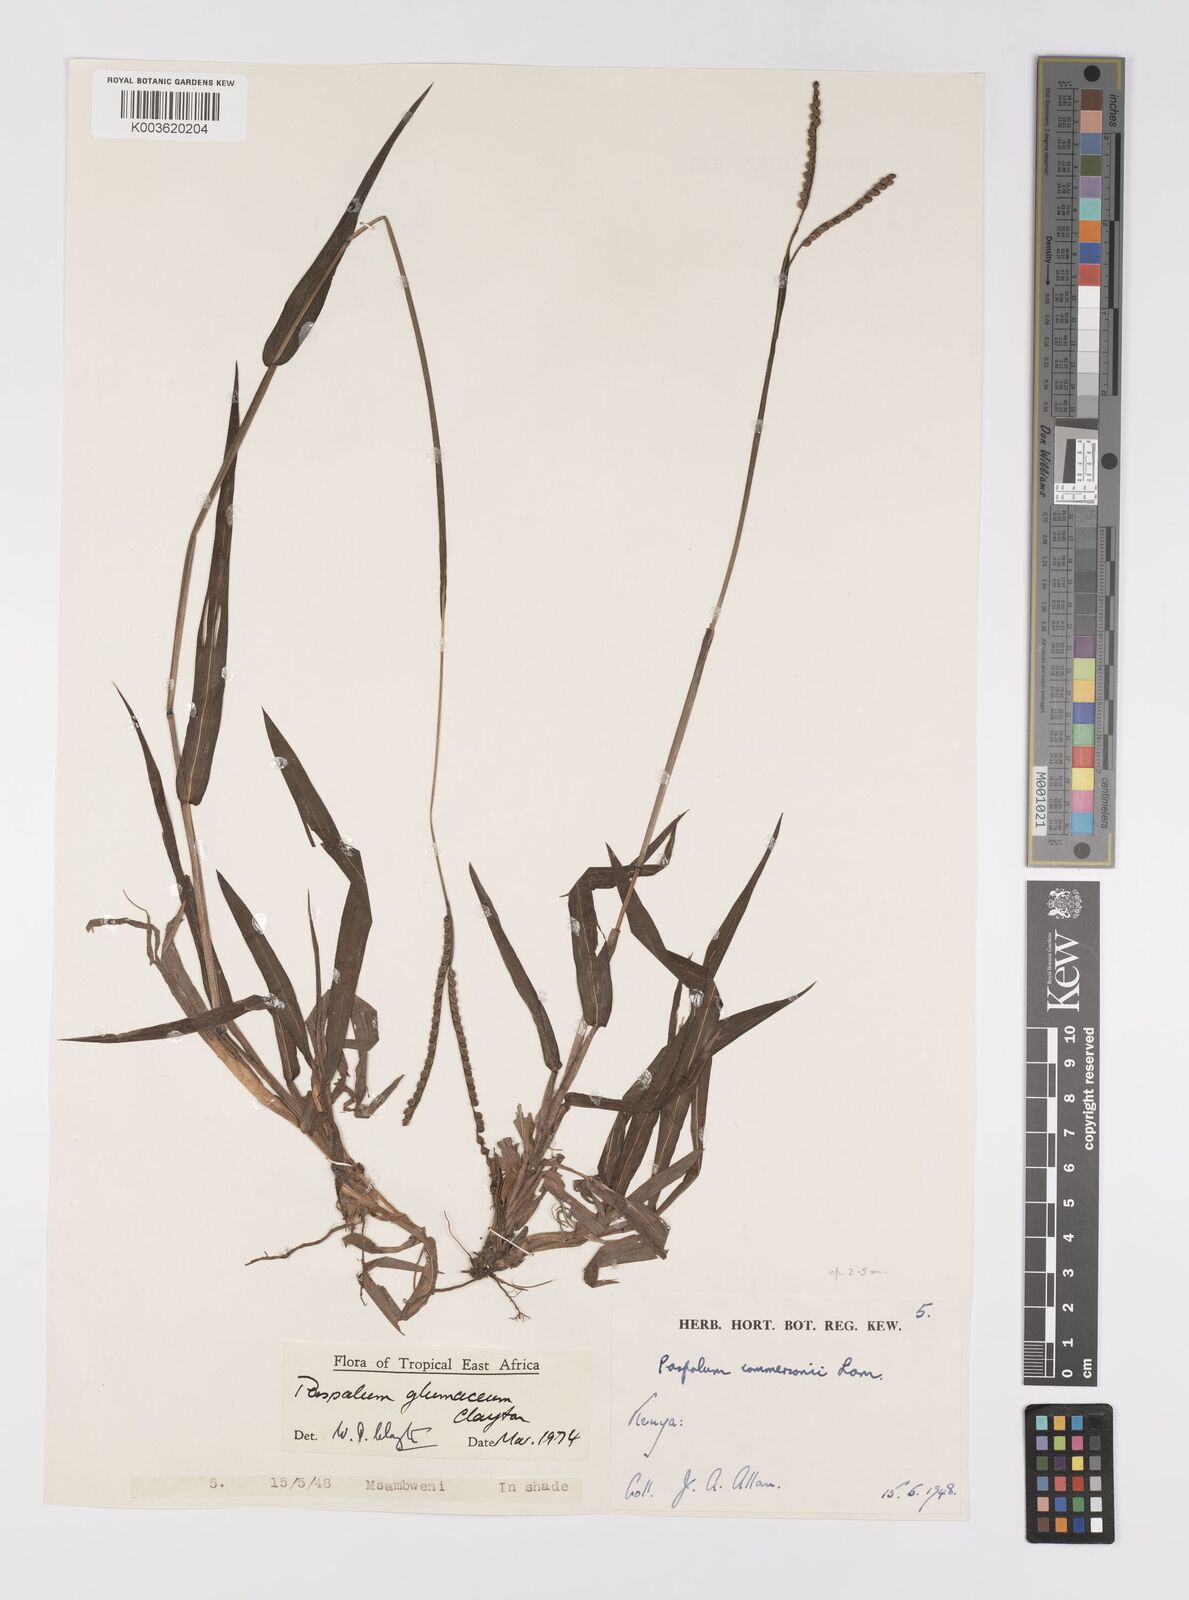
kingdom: Plantae
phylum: Tracheophyta
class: Liliopsida
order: Poales
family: Poaceae
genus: Paspalum
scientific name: Paspalum glumaceum
